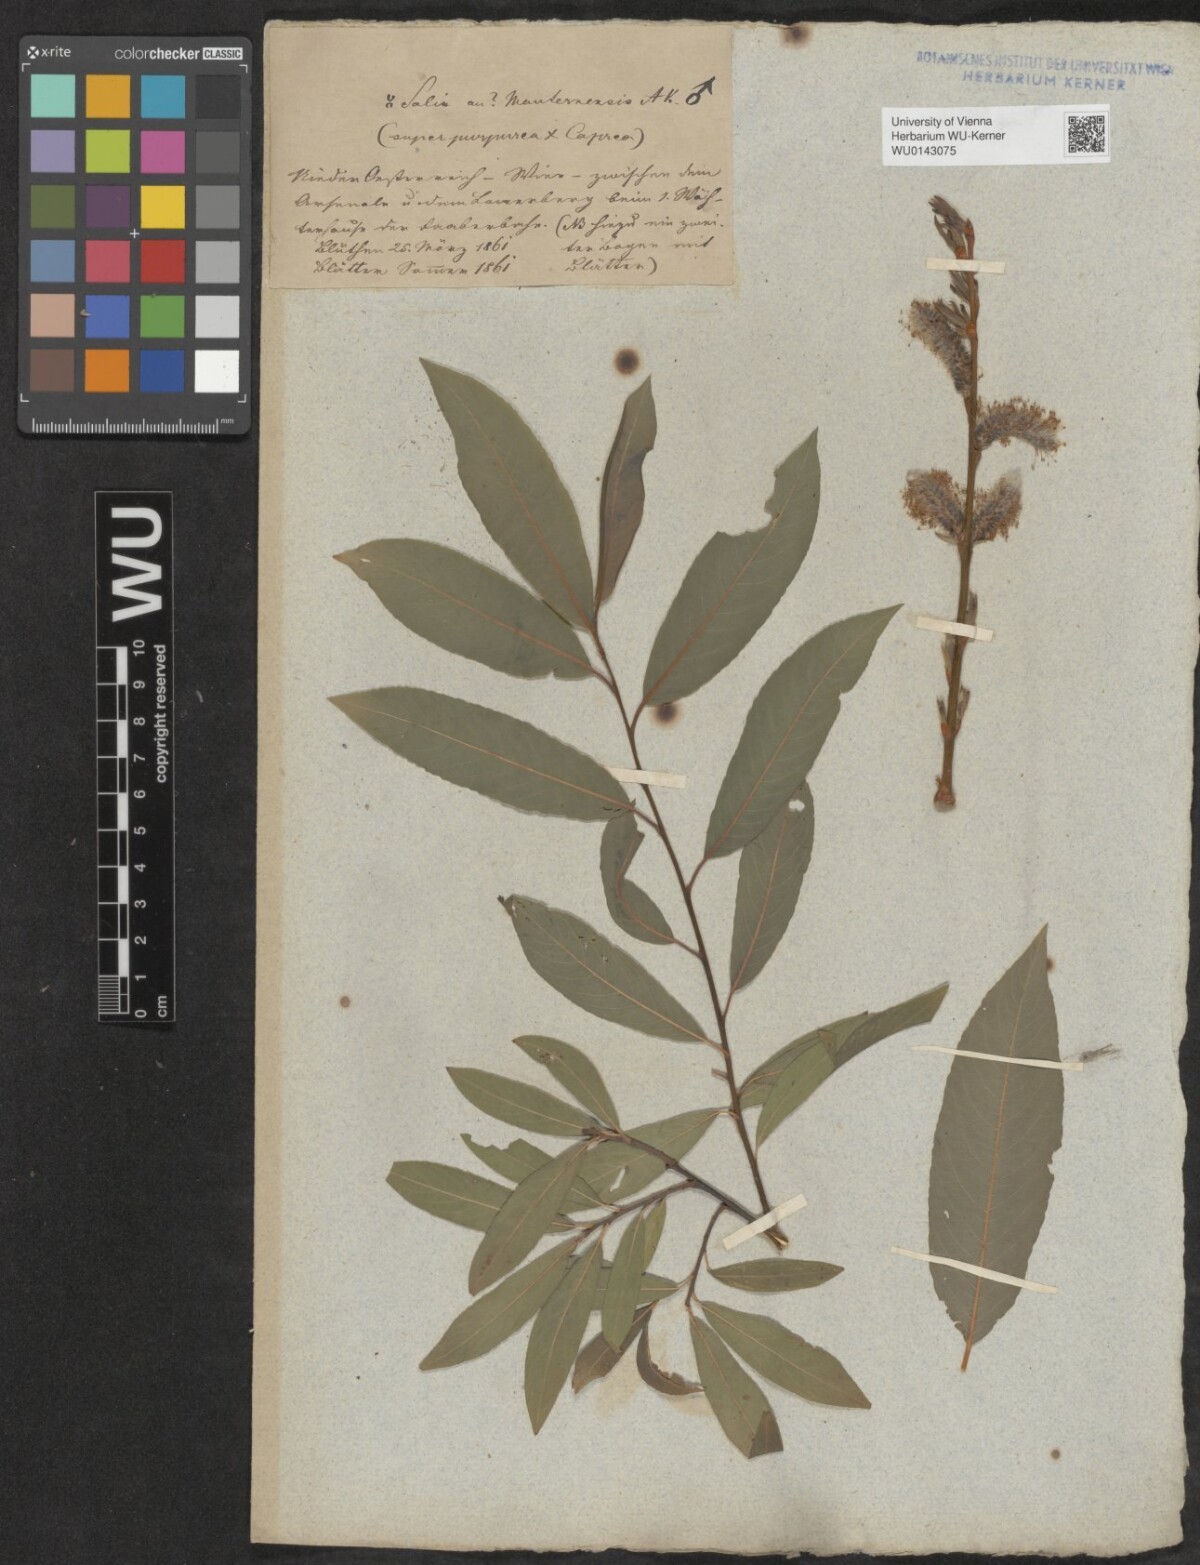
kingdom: Plantae
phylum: Tracheophyta
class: Magnoliopsida
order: Malpighiales
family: Salicaceae
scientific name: Salicaceae
